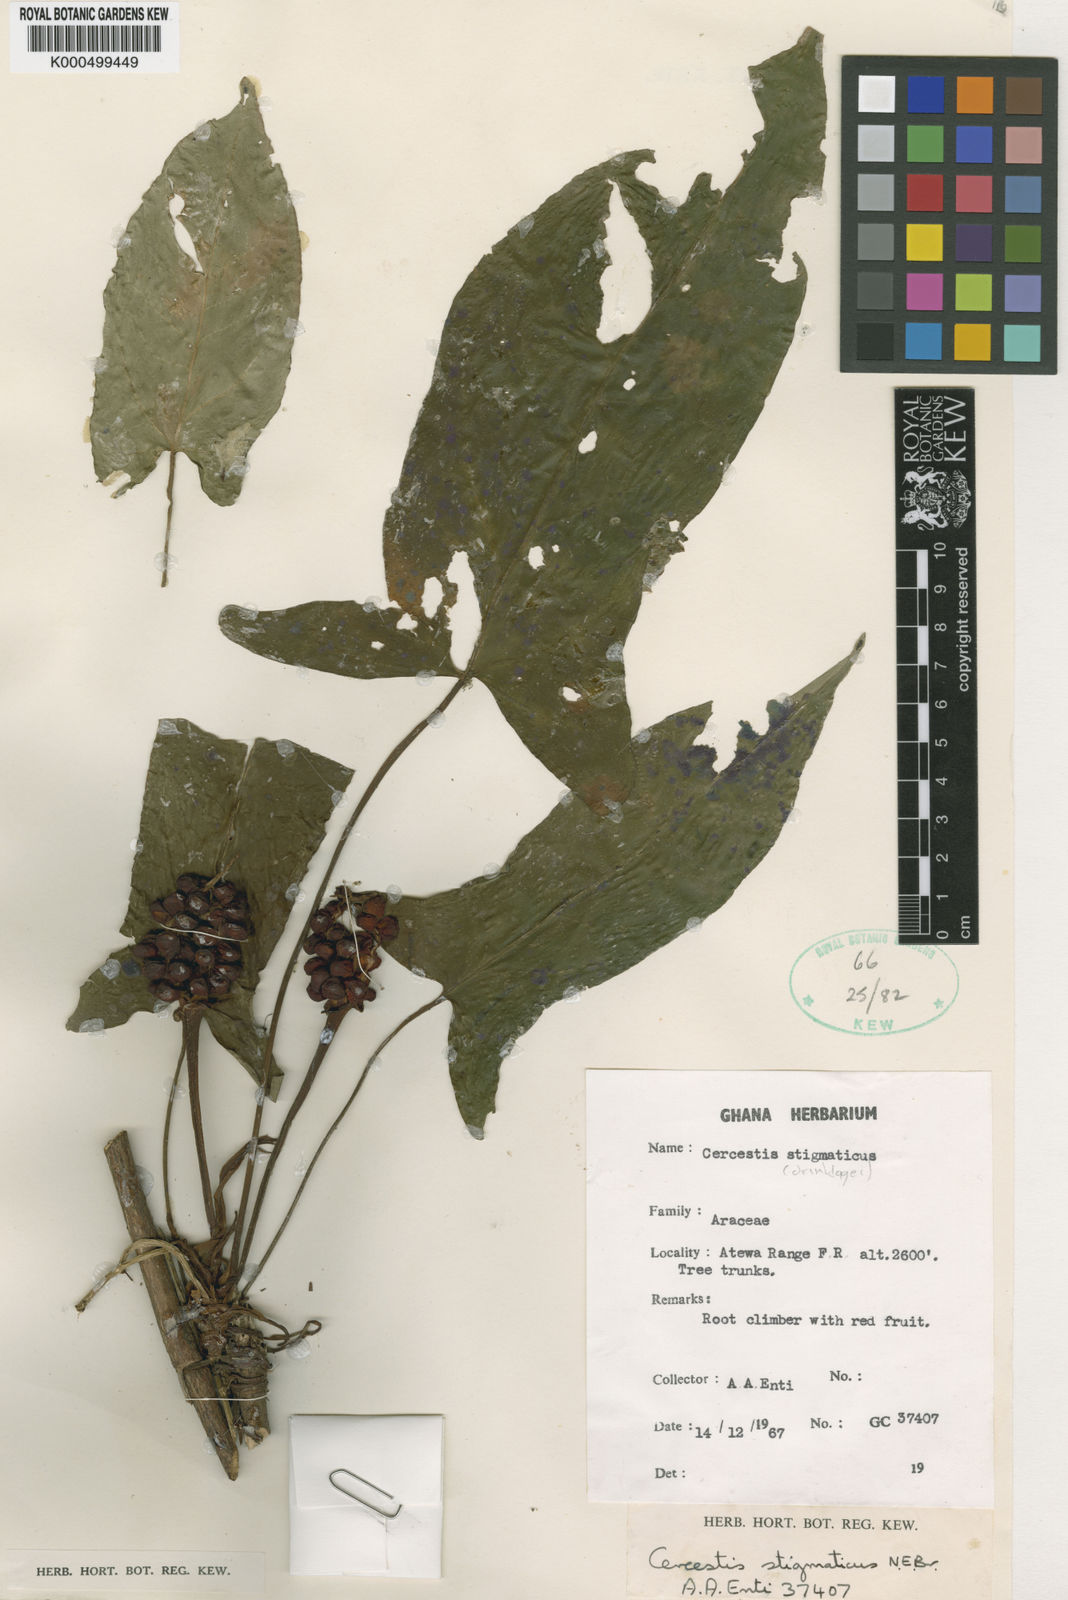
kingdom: Plantae
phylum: Tracheophyta
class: Liliopsida
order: Alismatales
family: Araceae
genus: Cercestis
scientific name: Cercestis dinklagei
